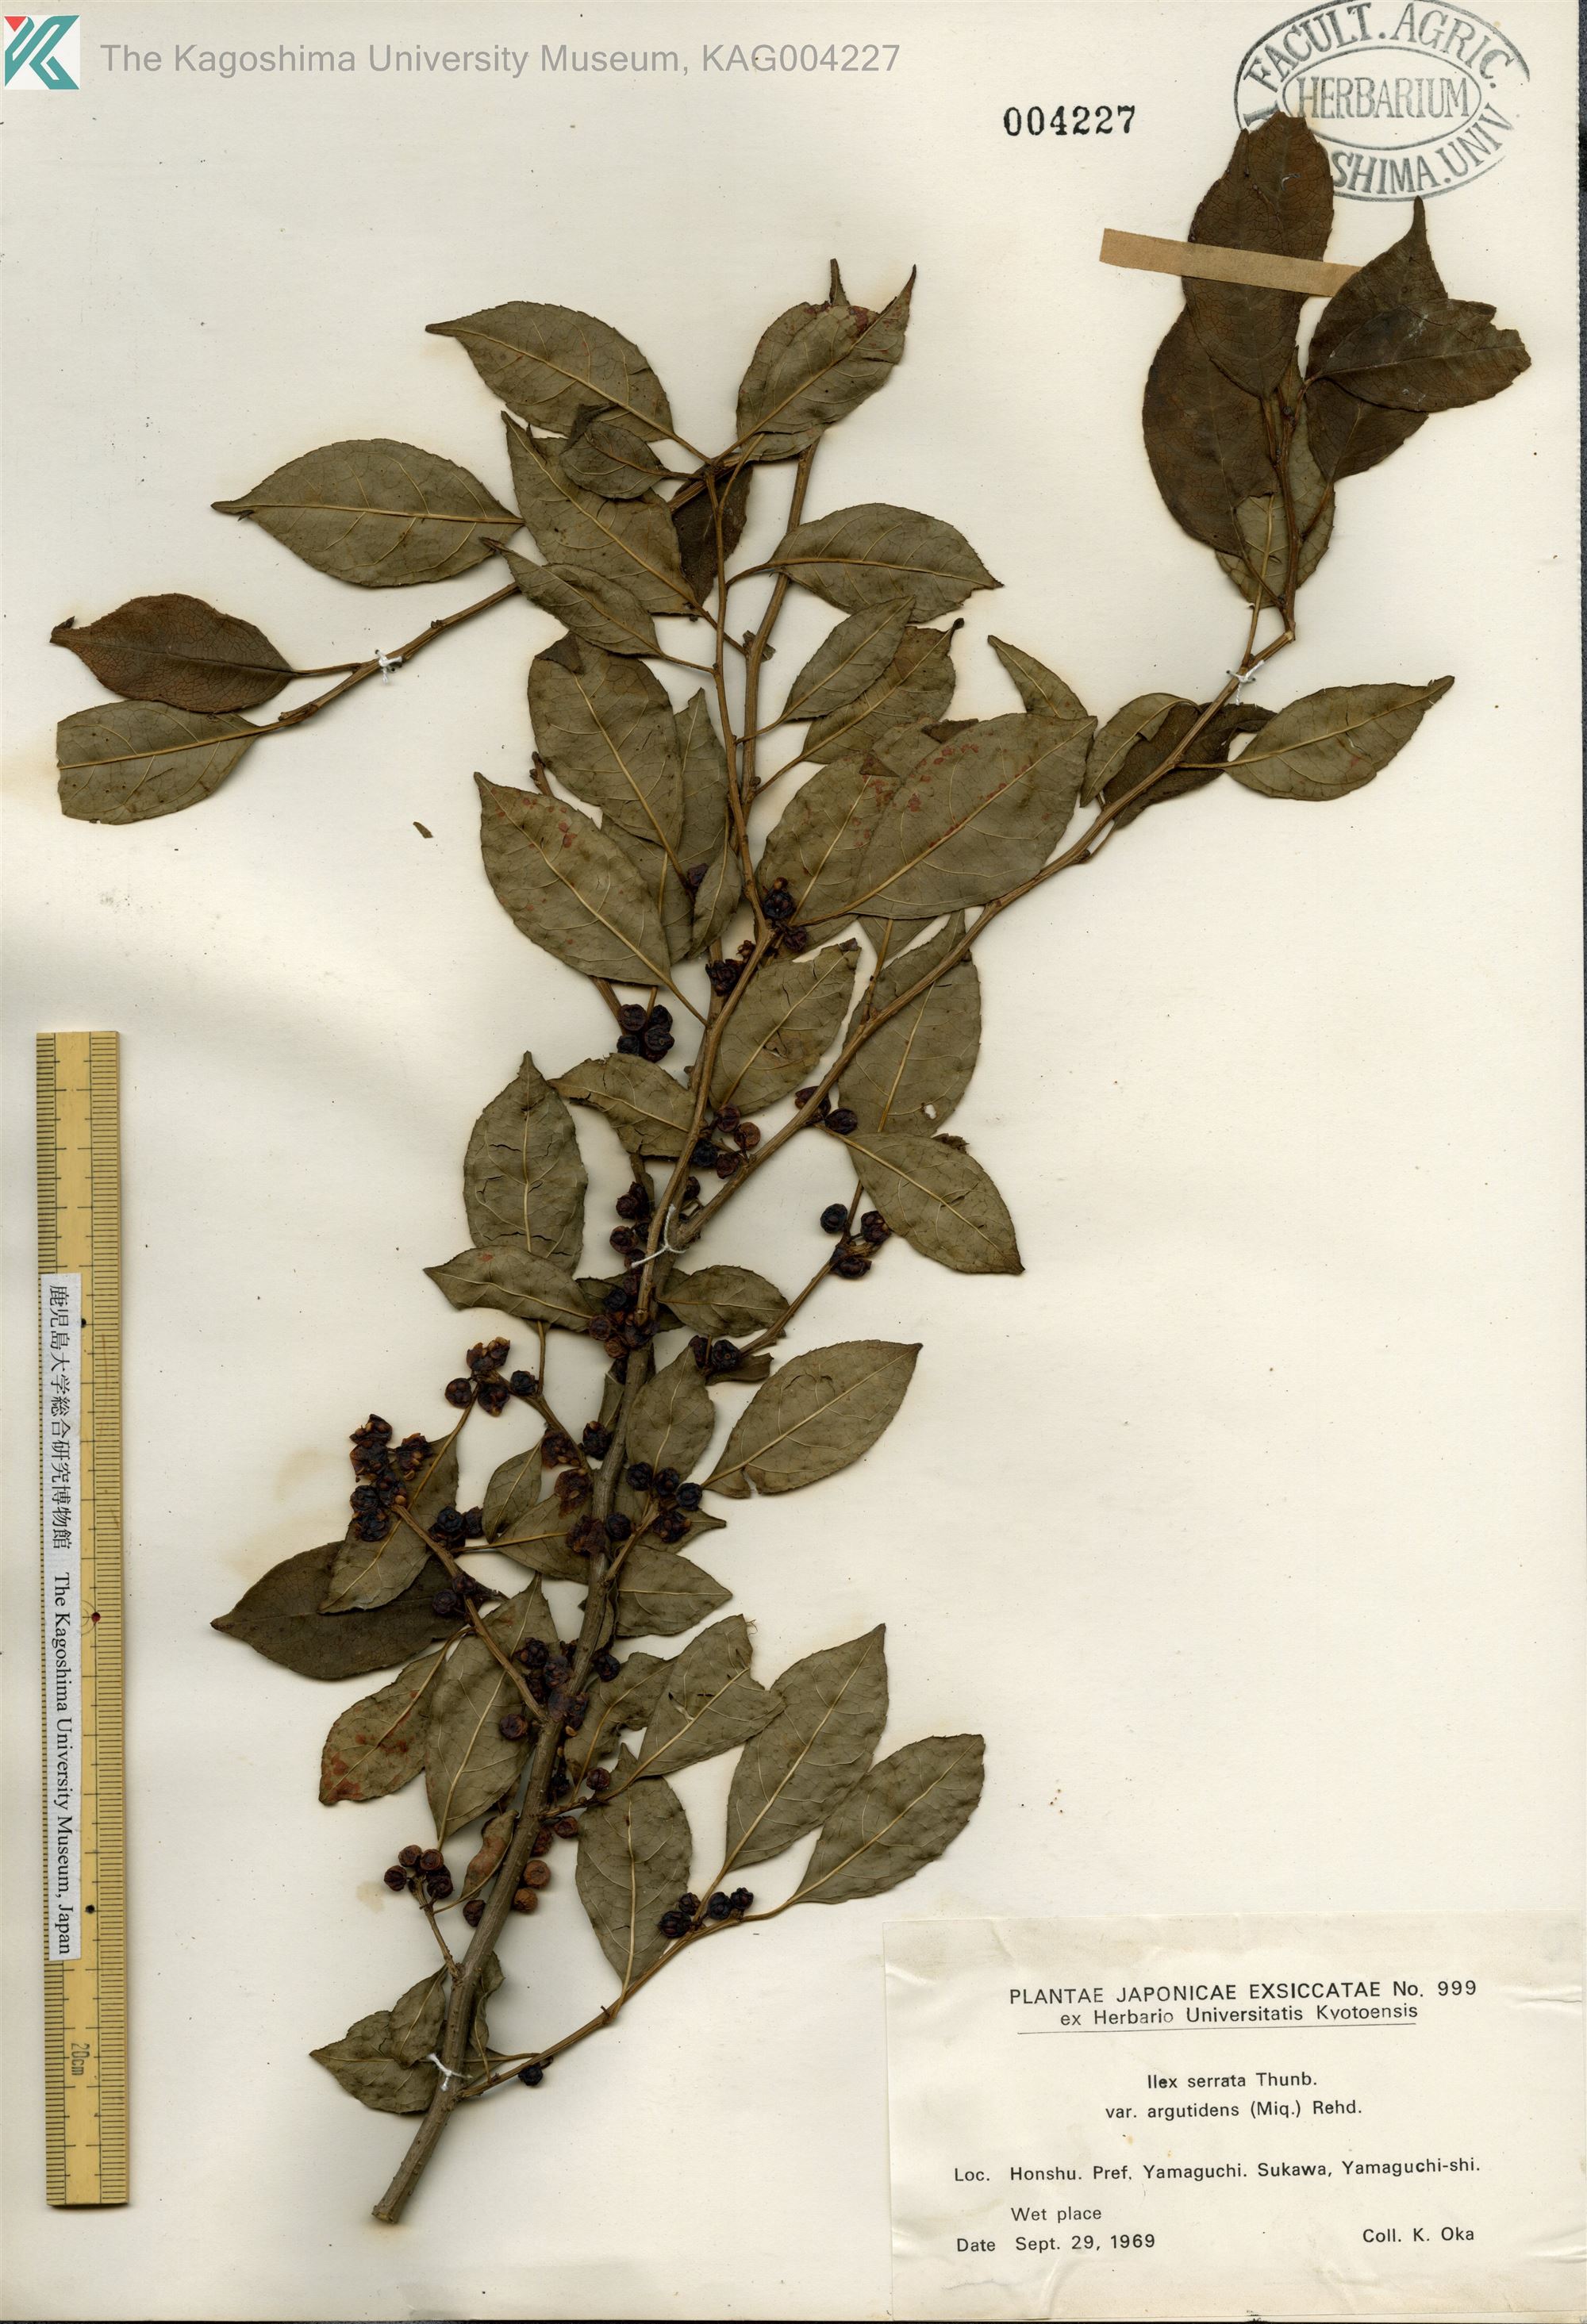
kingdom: Plantae
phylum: Tracheophyta
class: Magnoliopsida
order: Aquifoliales
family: Aquifoliaceae
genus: Ilex
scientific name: Ilex serrata
